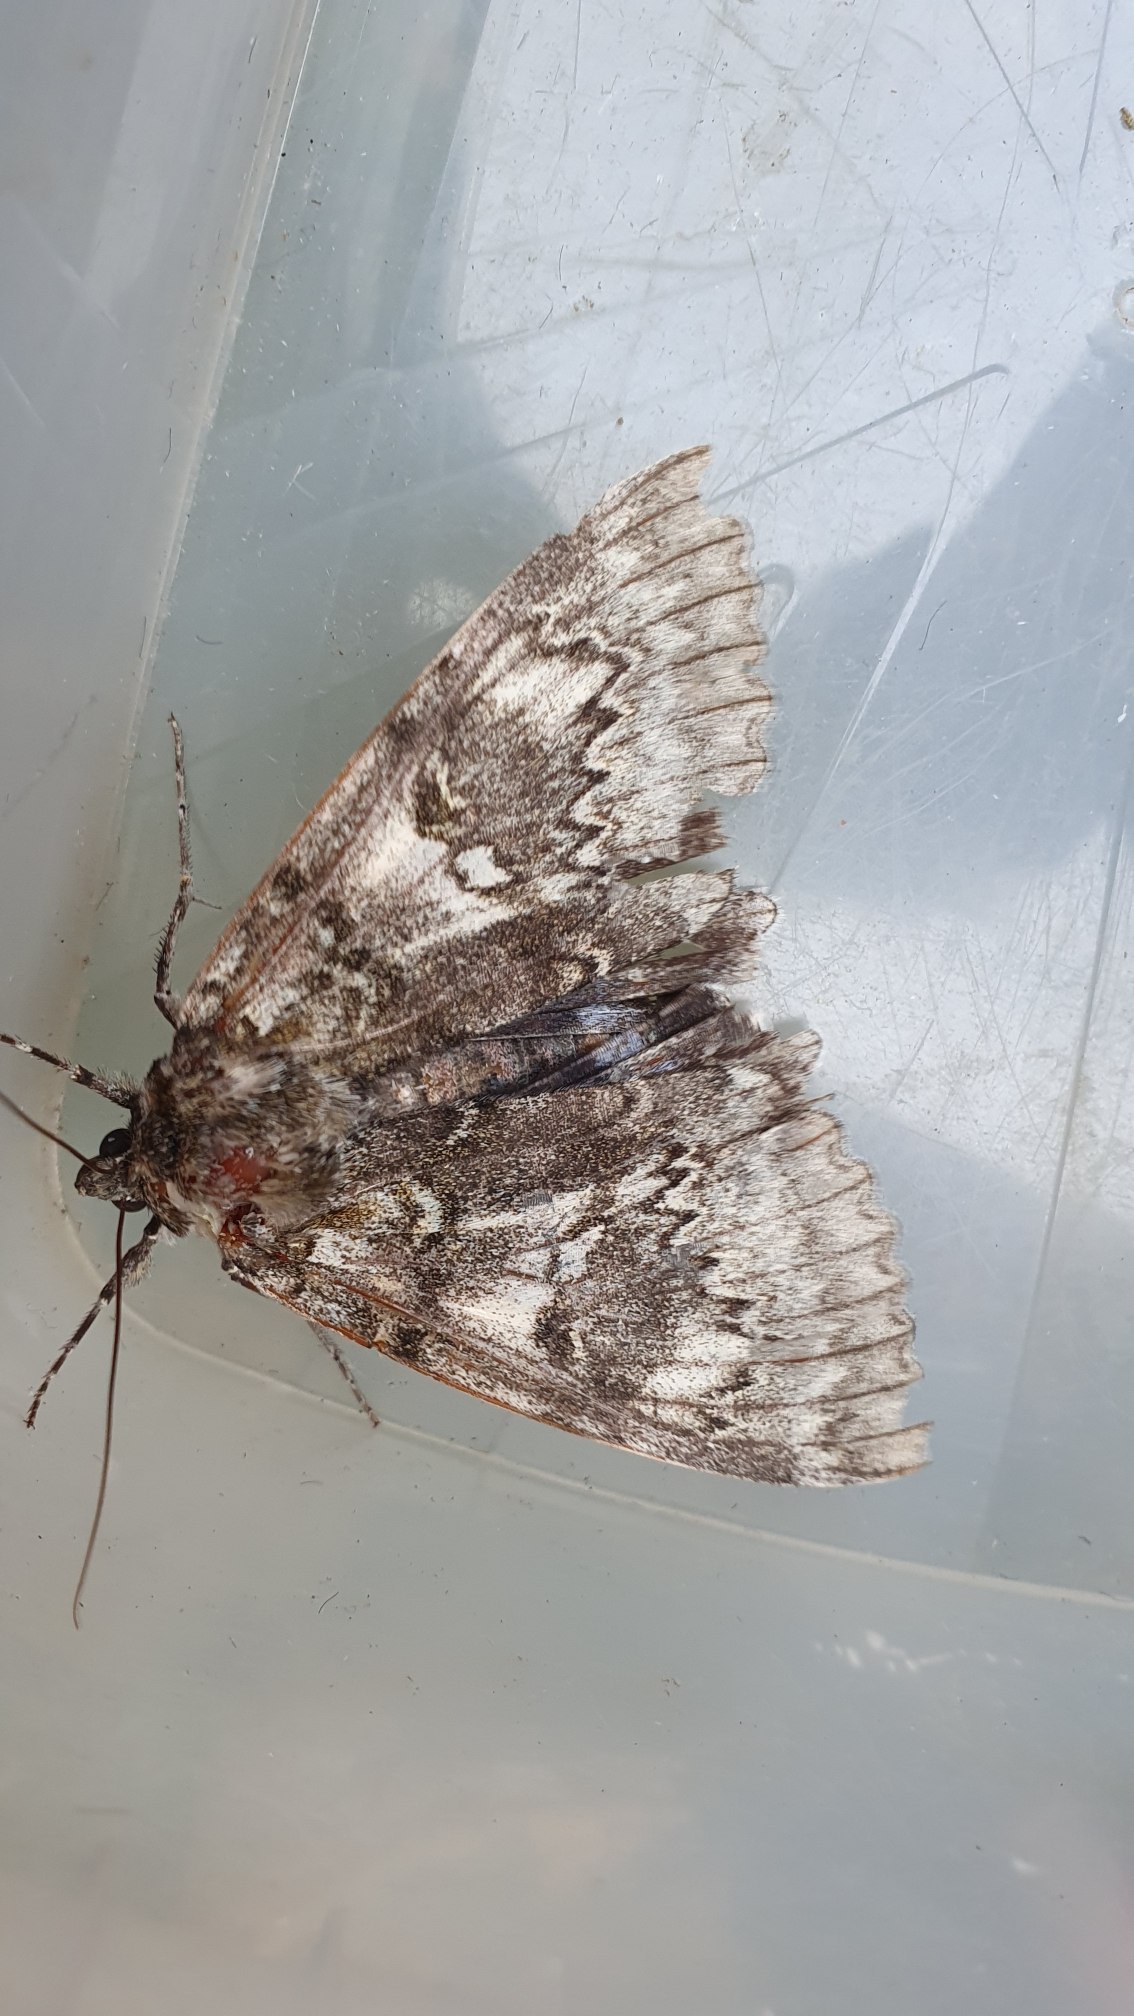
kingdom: Animalia
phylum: Arthropoda
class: Insecta
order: Lepidoptera
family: Erebidae
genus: Catocala
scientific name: Catocala fraxini
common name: Blåt ordensbånd
